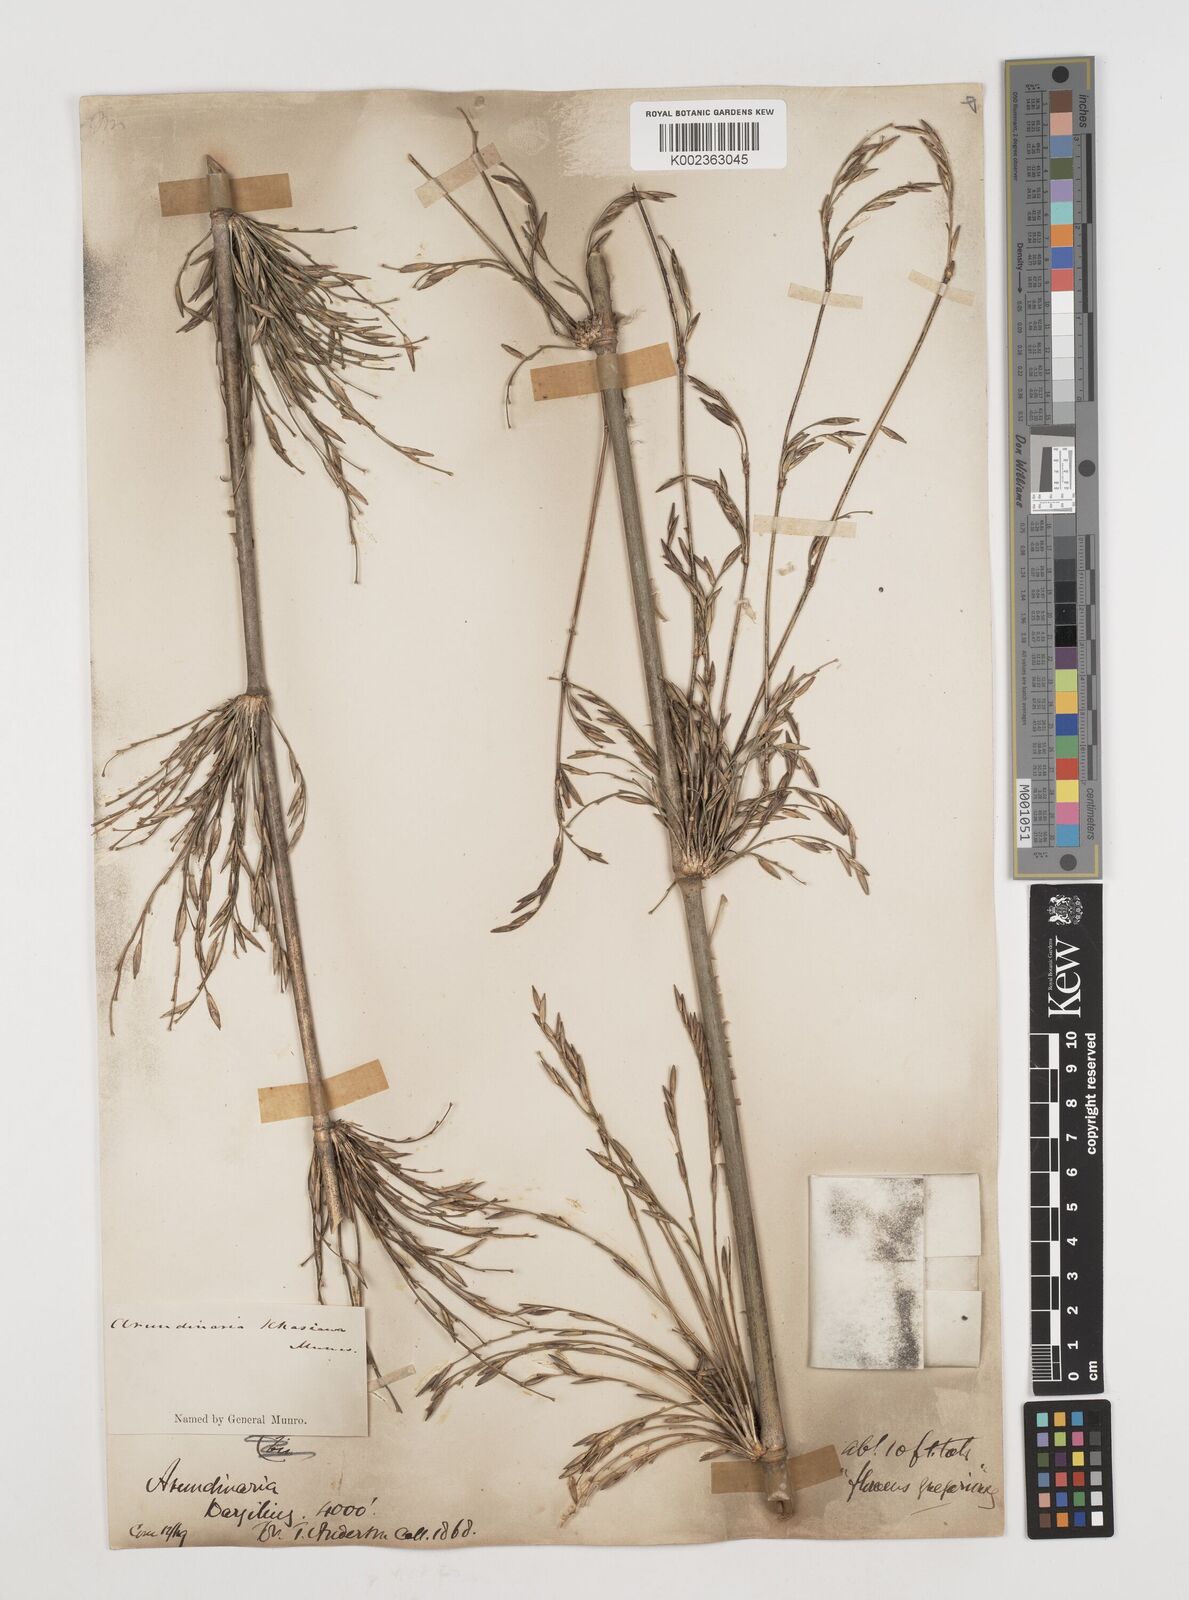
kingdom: Plantae
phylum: Tracheophyta
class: Liliopsida
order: Poales
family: Poaceae
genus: Drepanostachyum
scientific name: Drepanostachyum khasianum
